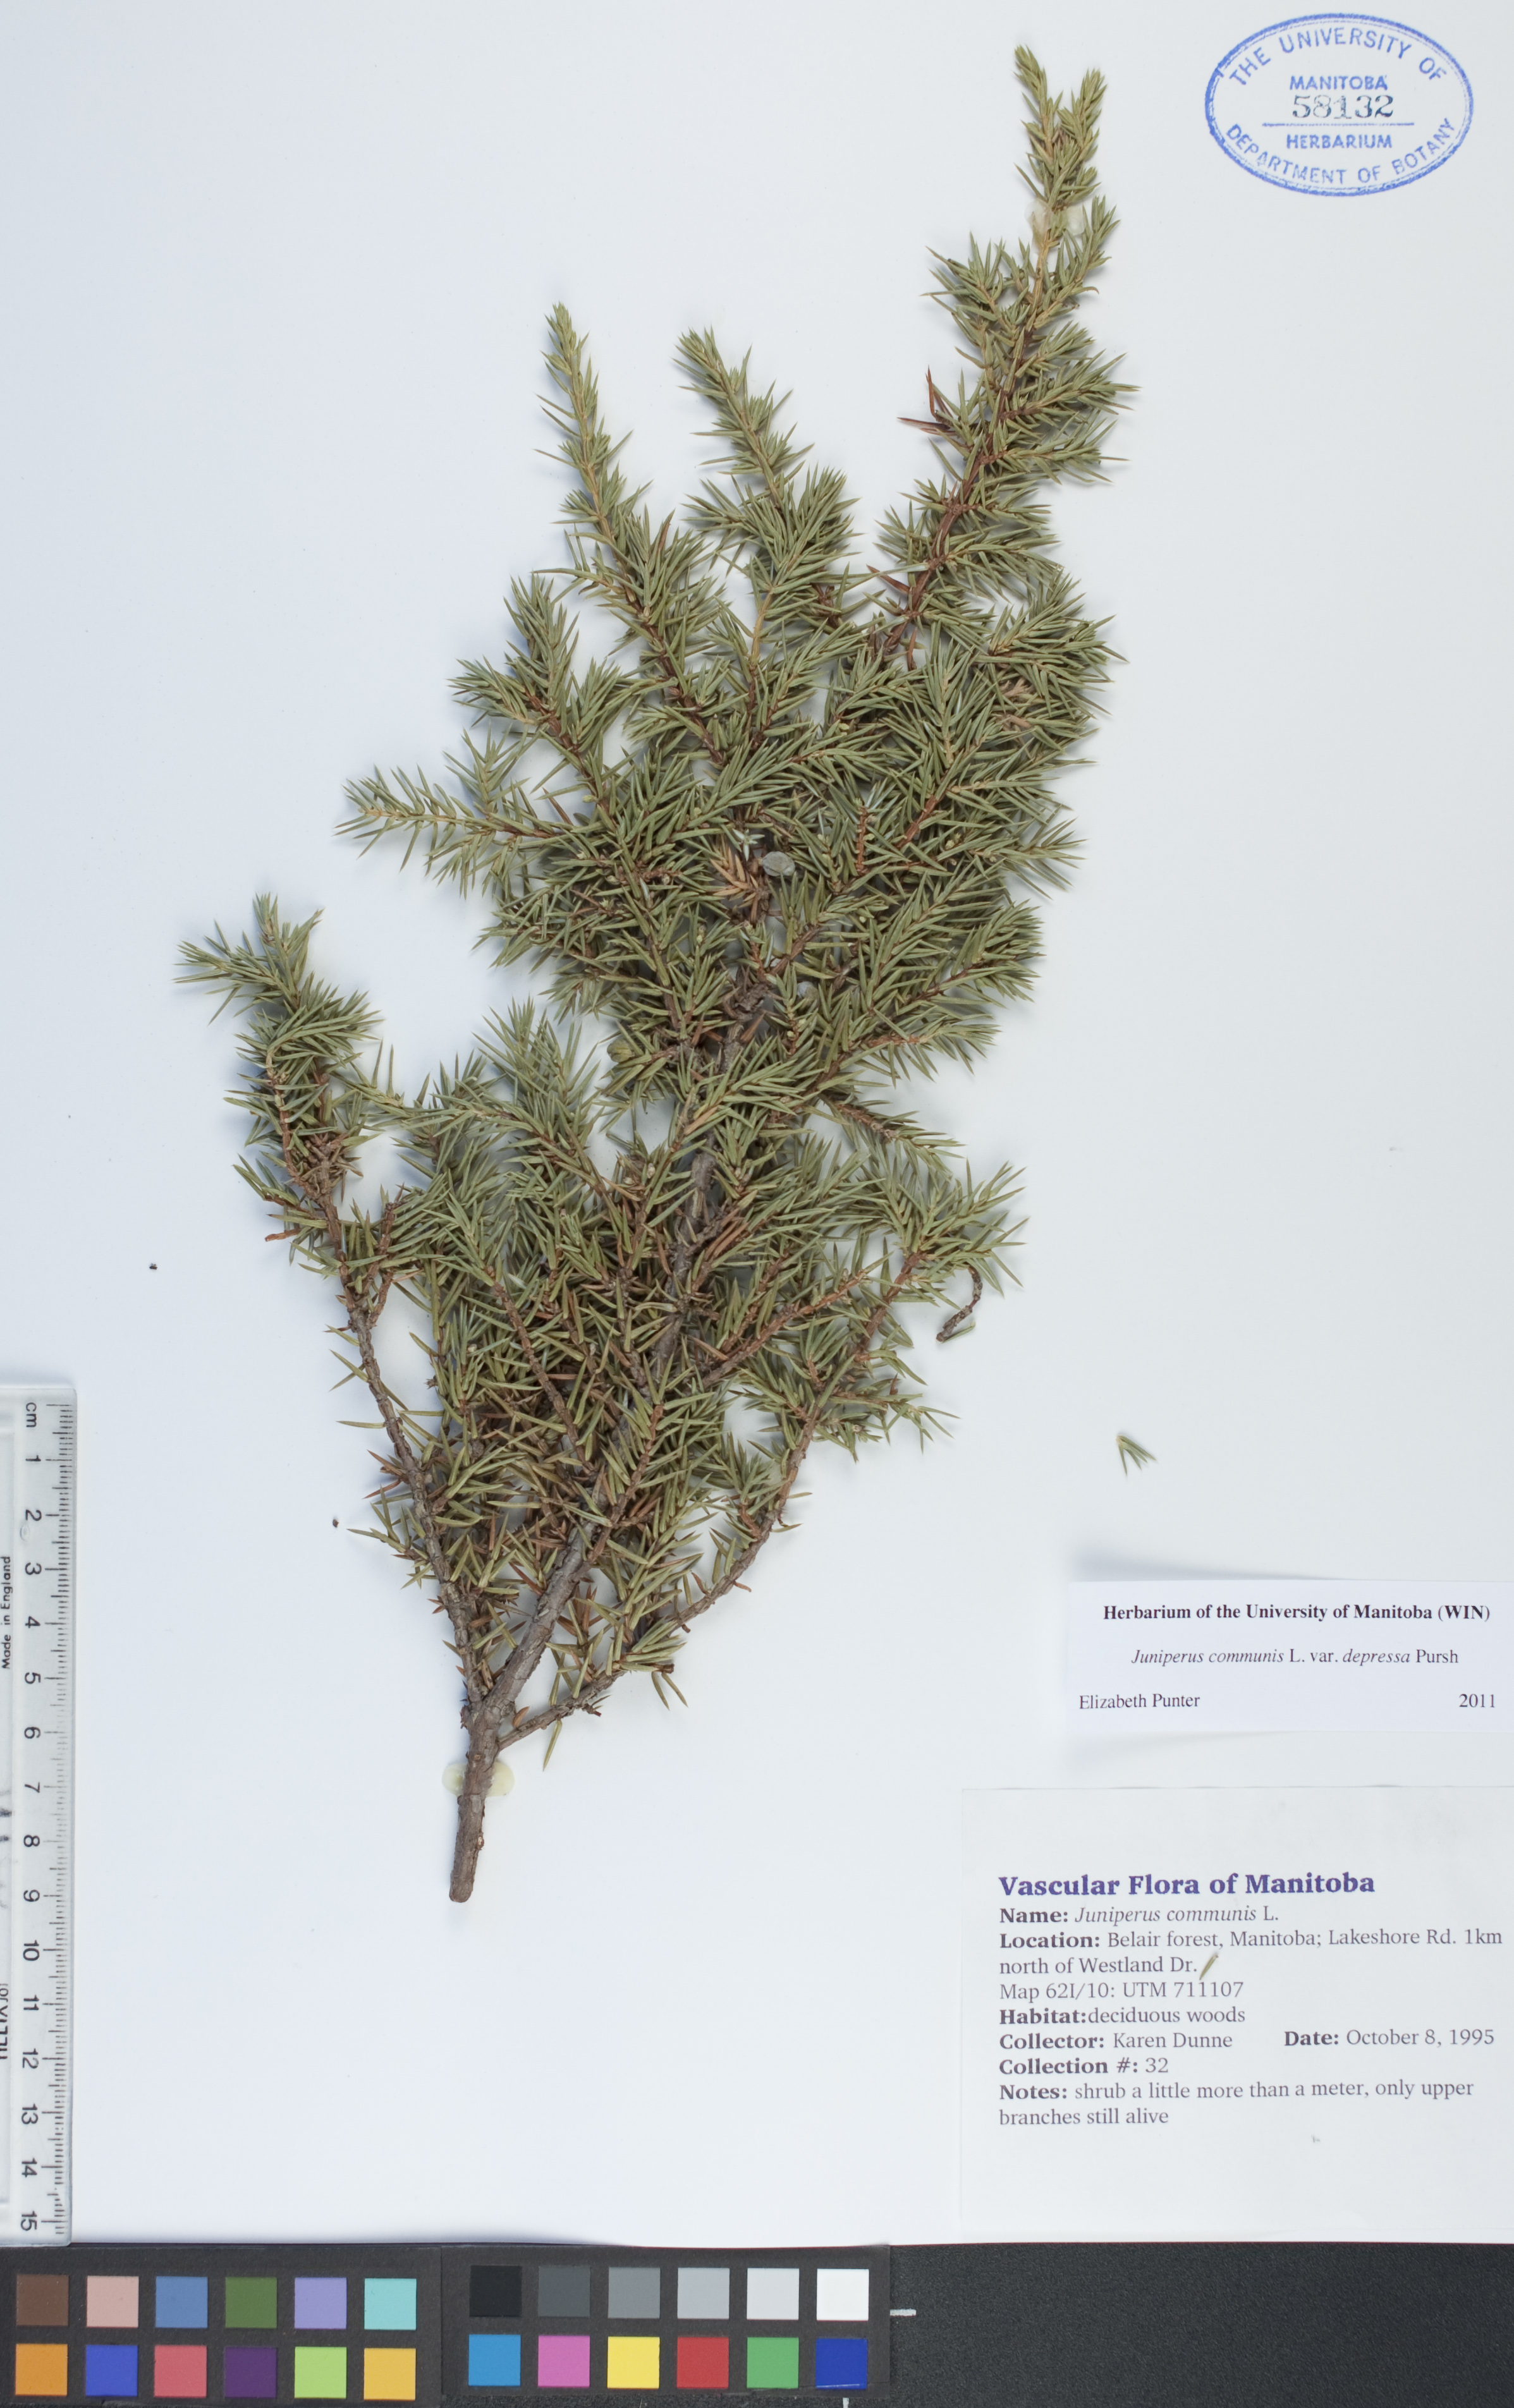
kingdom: Plantae
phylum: Tracheophyta
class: Pinopsida
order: Pinales
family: Cupressaceae
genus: Juniperus
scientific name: Juniperus communis
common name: Common juniper
